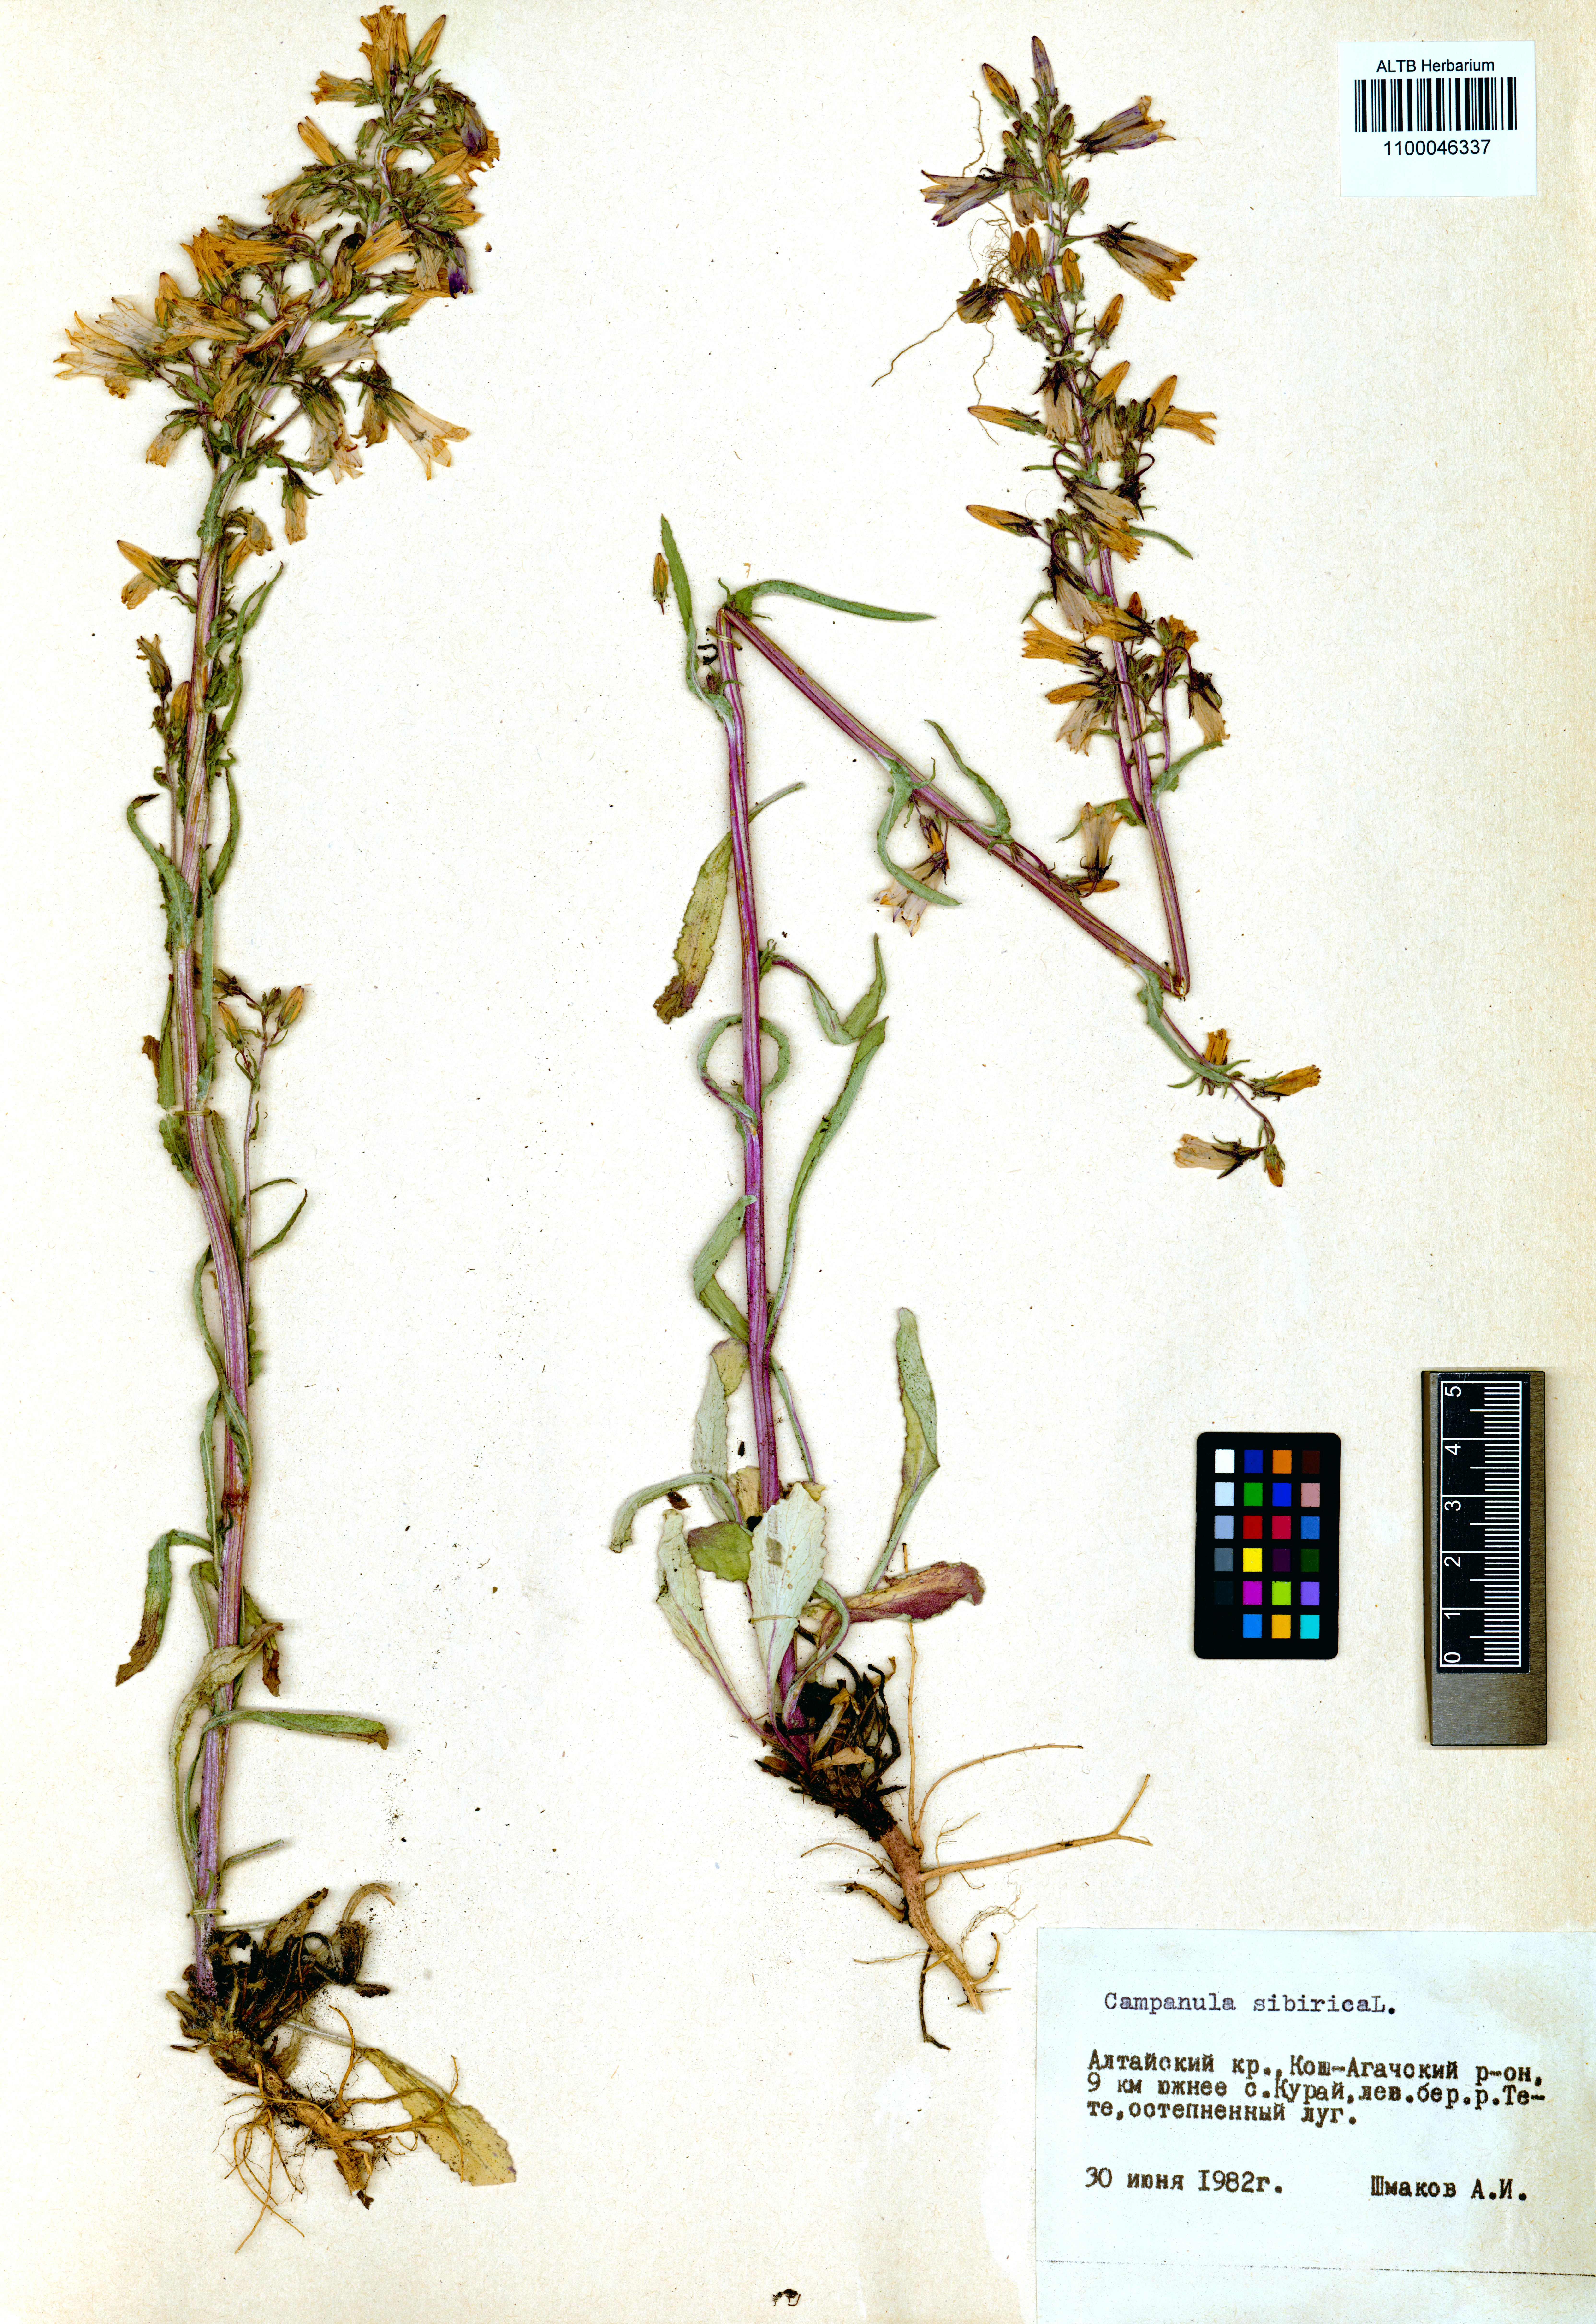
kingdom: Plantae
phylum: Tracheophyta
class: Magnoliopsida
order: Asterales
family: Campanulaceae
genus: Campanula
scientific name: Campanula sibirica
